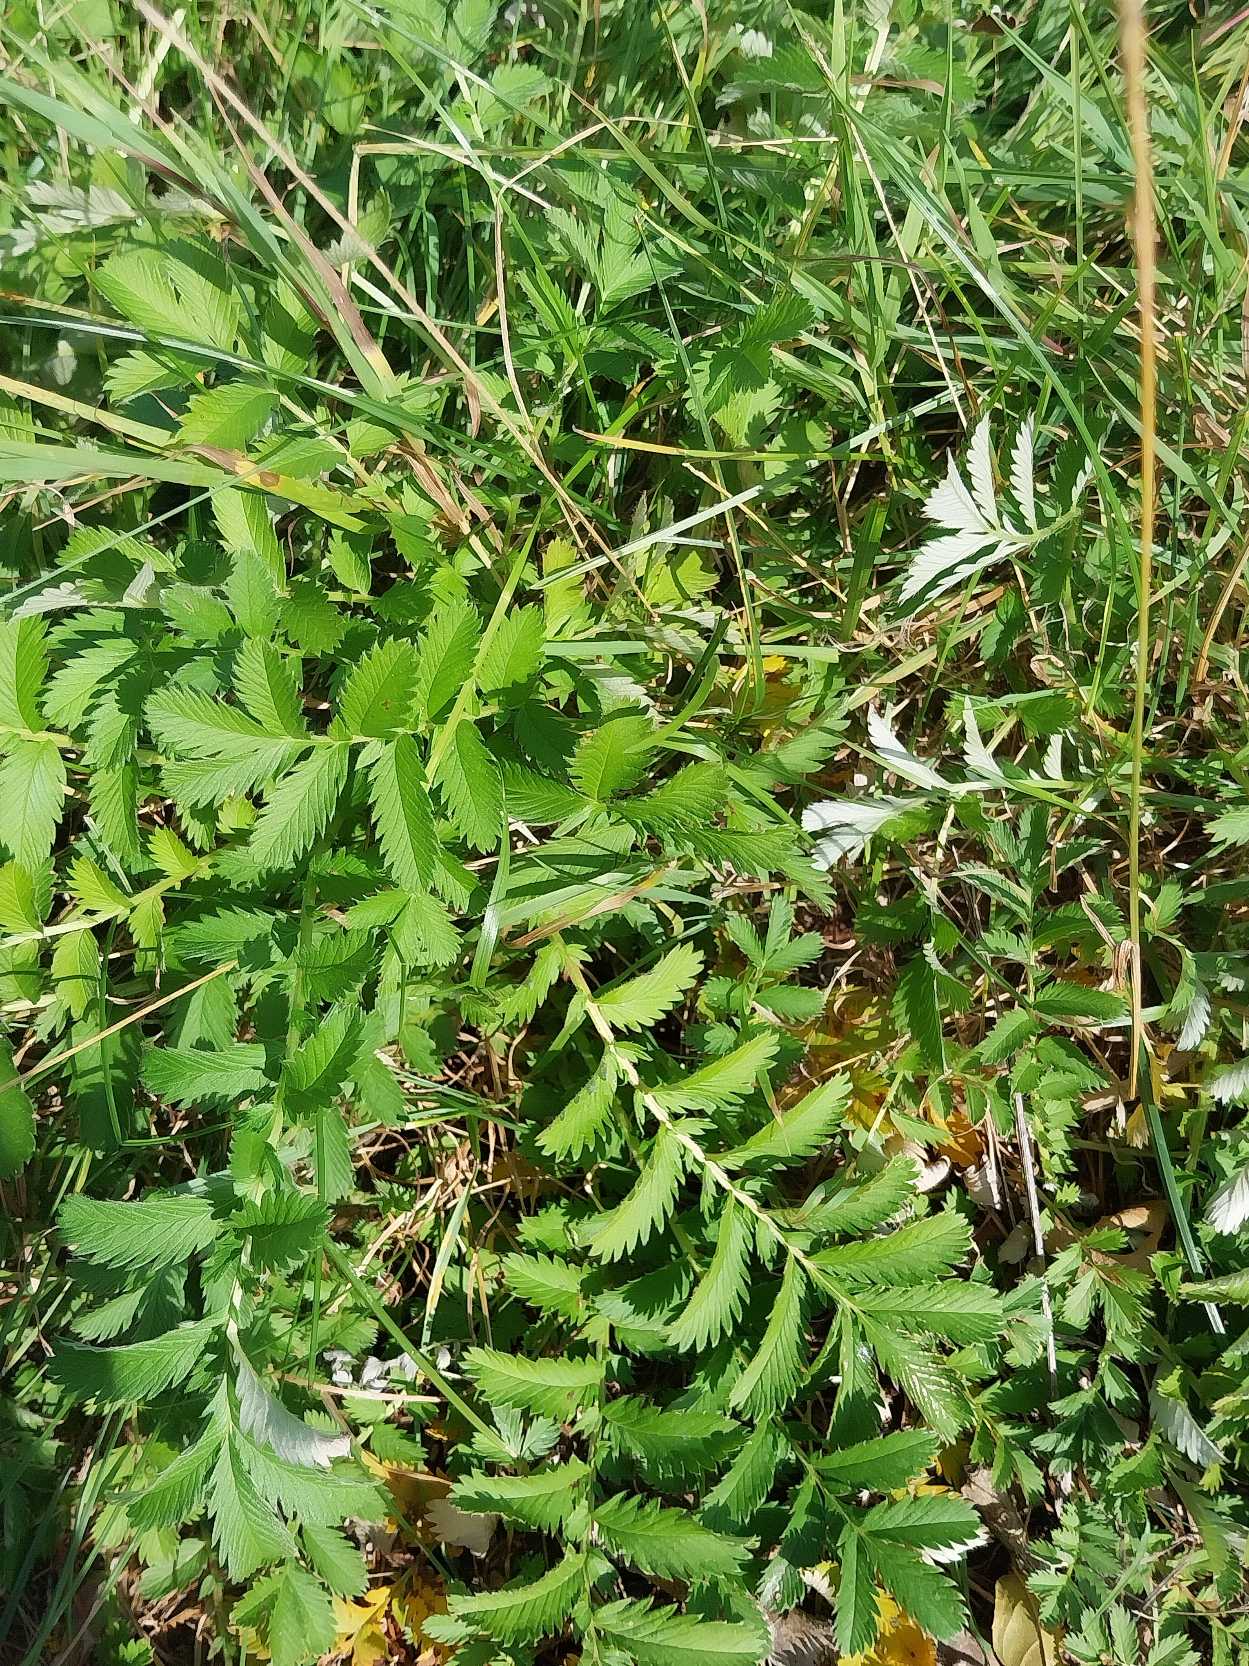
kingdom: Plantae
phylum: Tracheophyta
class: Magnoliopsida
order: Rosales
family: Rosaceae
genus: Argentina
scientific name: Argentina anserina
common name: Gåsepotentil
